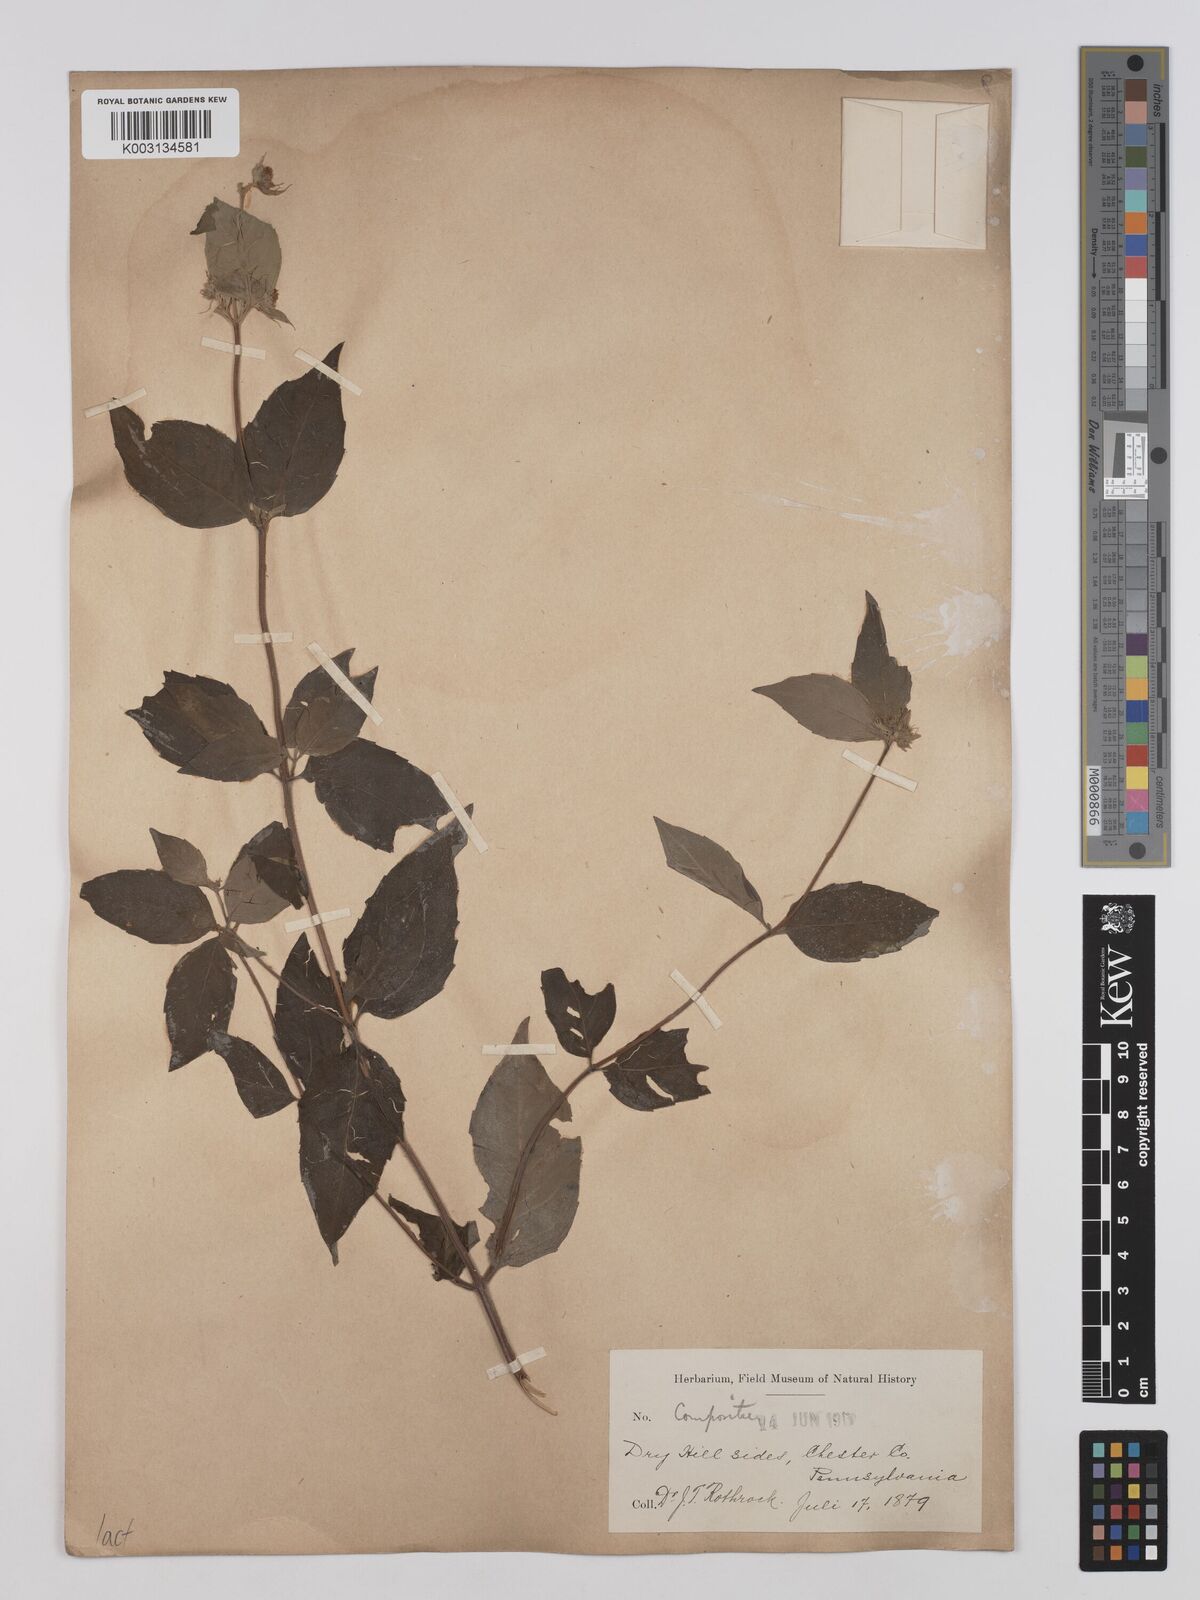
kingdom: Plantae
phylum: Tracheophyta
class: Magnoliopsida
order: Asterales
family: Asteraceae
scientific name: Asteraceae
